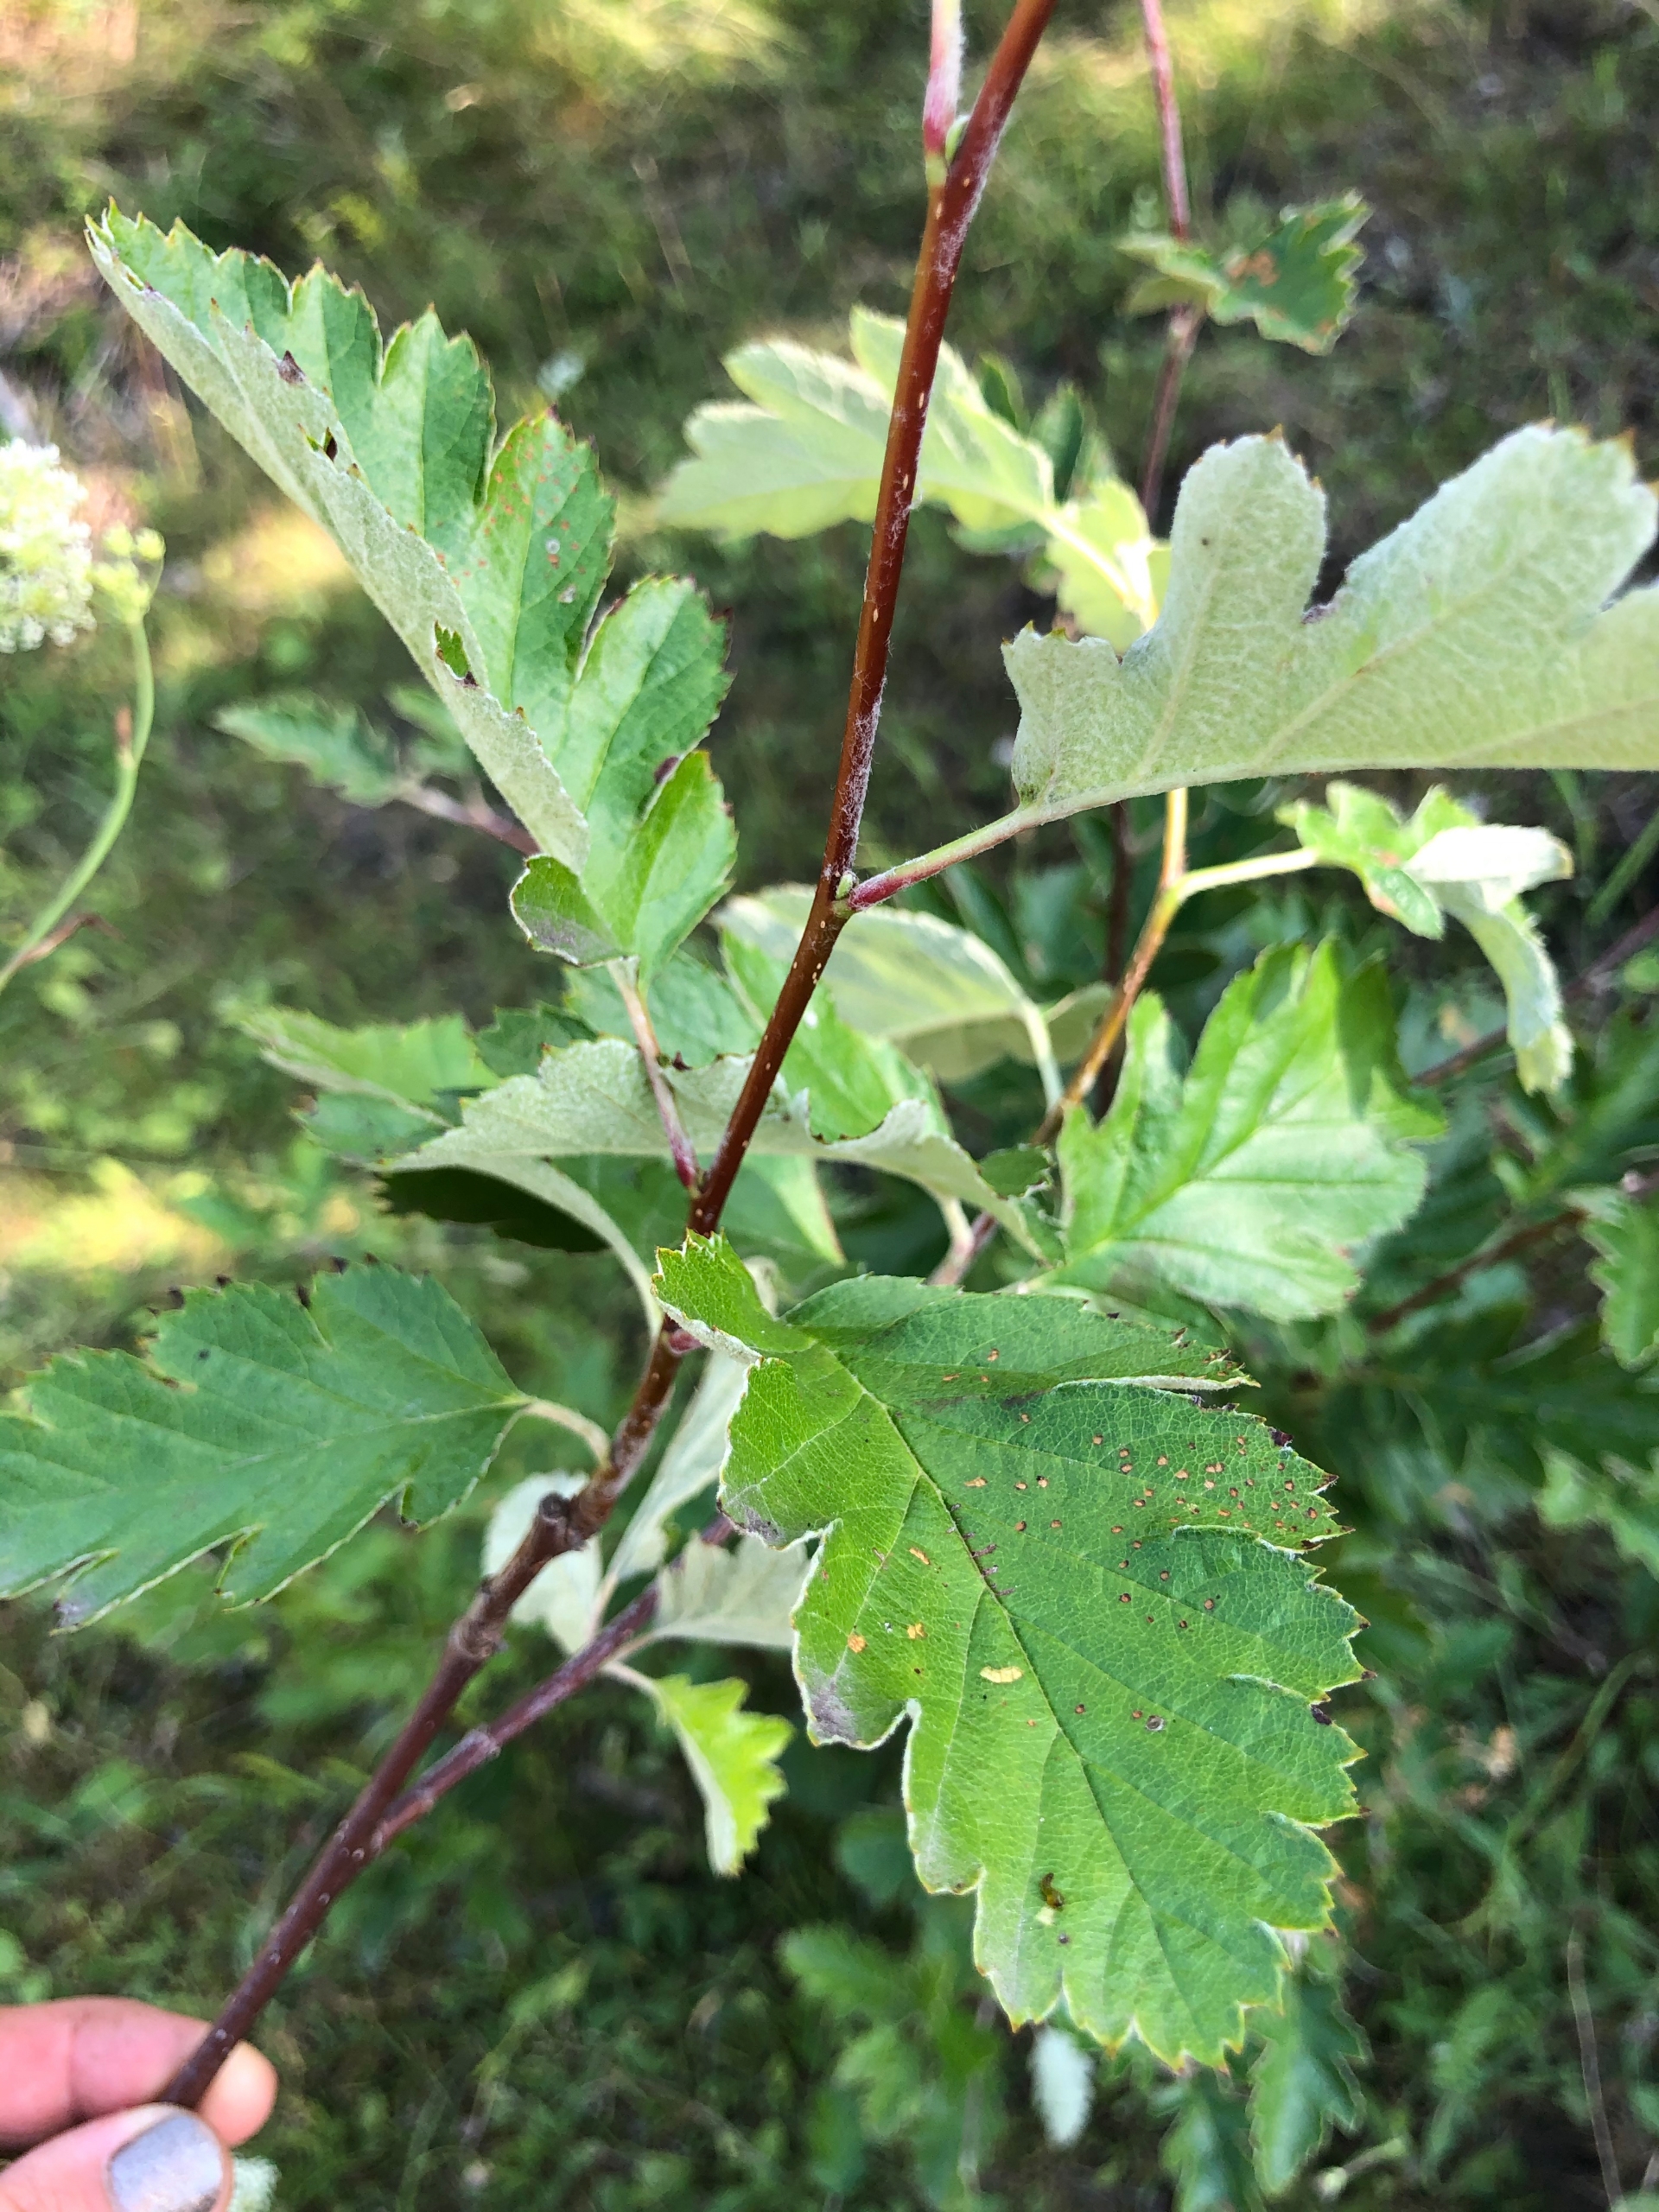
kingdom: Plantae
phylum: Tracheophyta
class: Magnoliopsida
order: Rosales
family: Rosaceae
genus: Scandosorbus
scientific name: Scandosorbus intermedia
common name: Selje-røn
